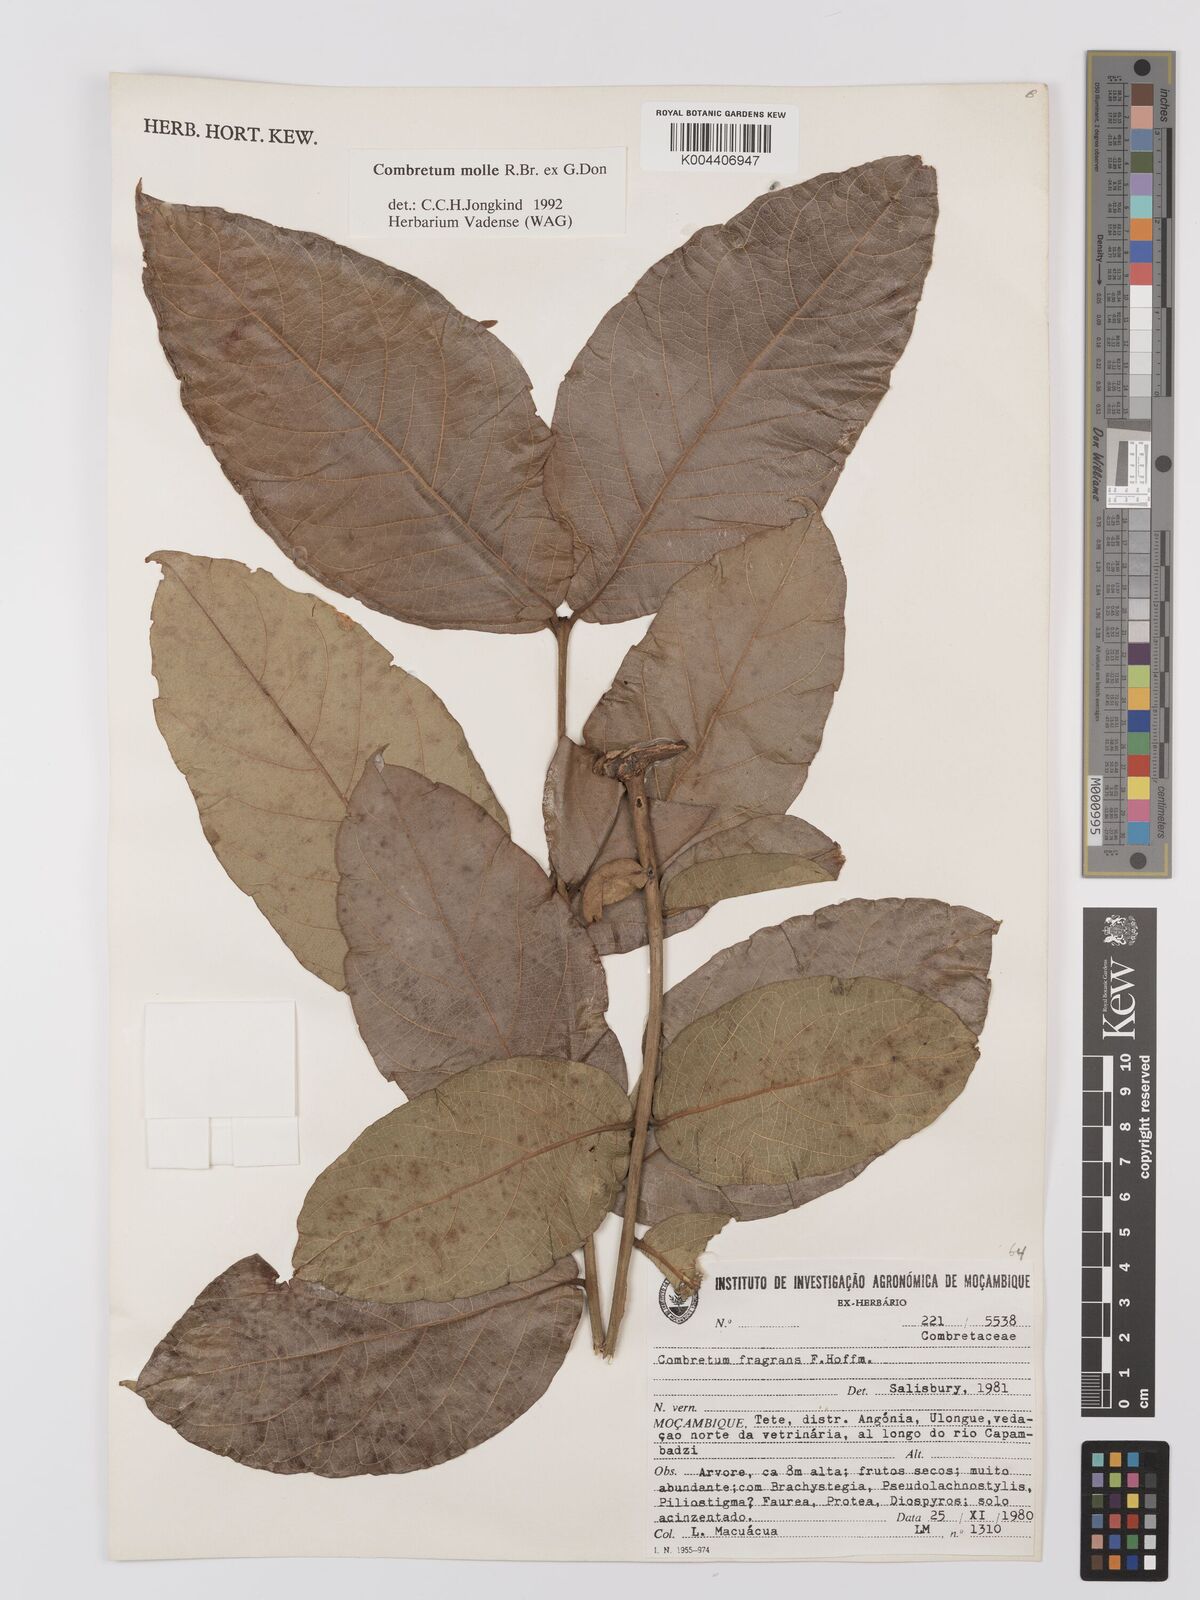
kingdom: Plantae
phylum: Tracheophyta
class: Magnoliopsida
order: Myrtales
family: Combretaceae
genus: Combretum
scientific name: Combretum
